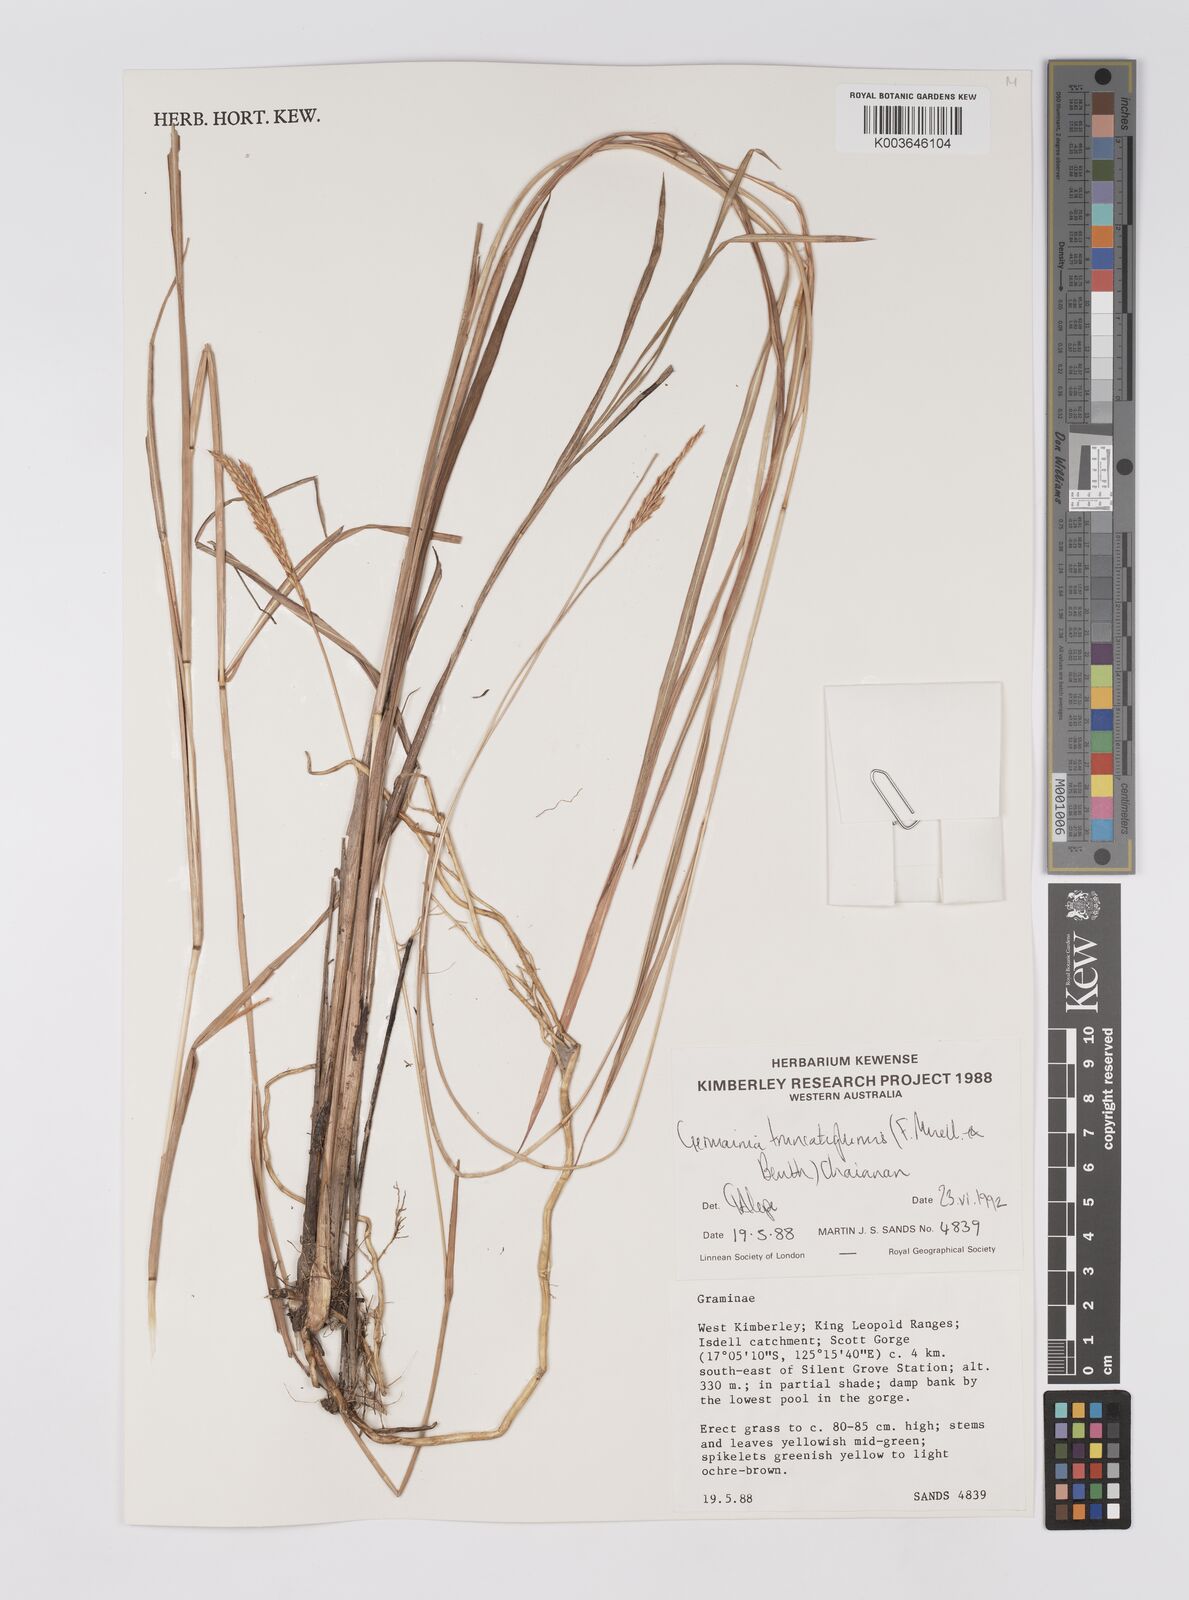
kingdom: Plantae
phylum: Tracheophyta
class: Liliopsida
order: Poales
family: Poaceae
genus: Germainia
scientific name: Germainia truncatiglumis
